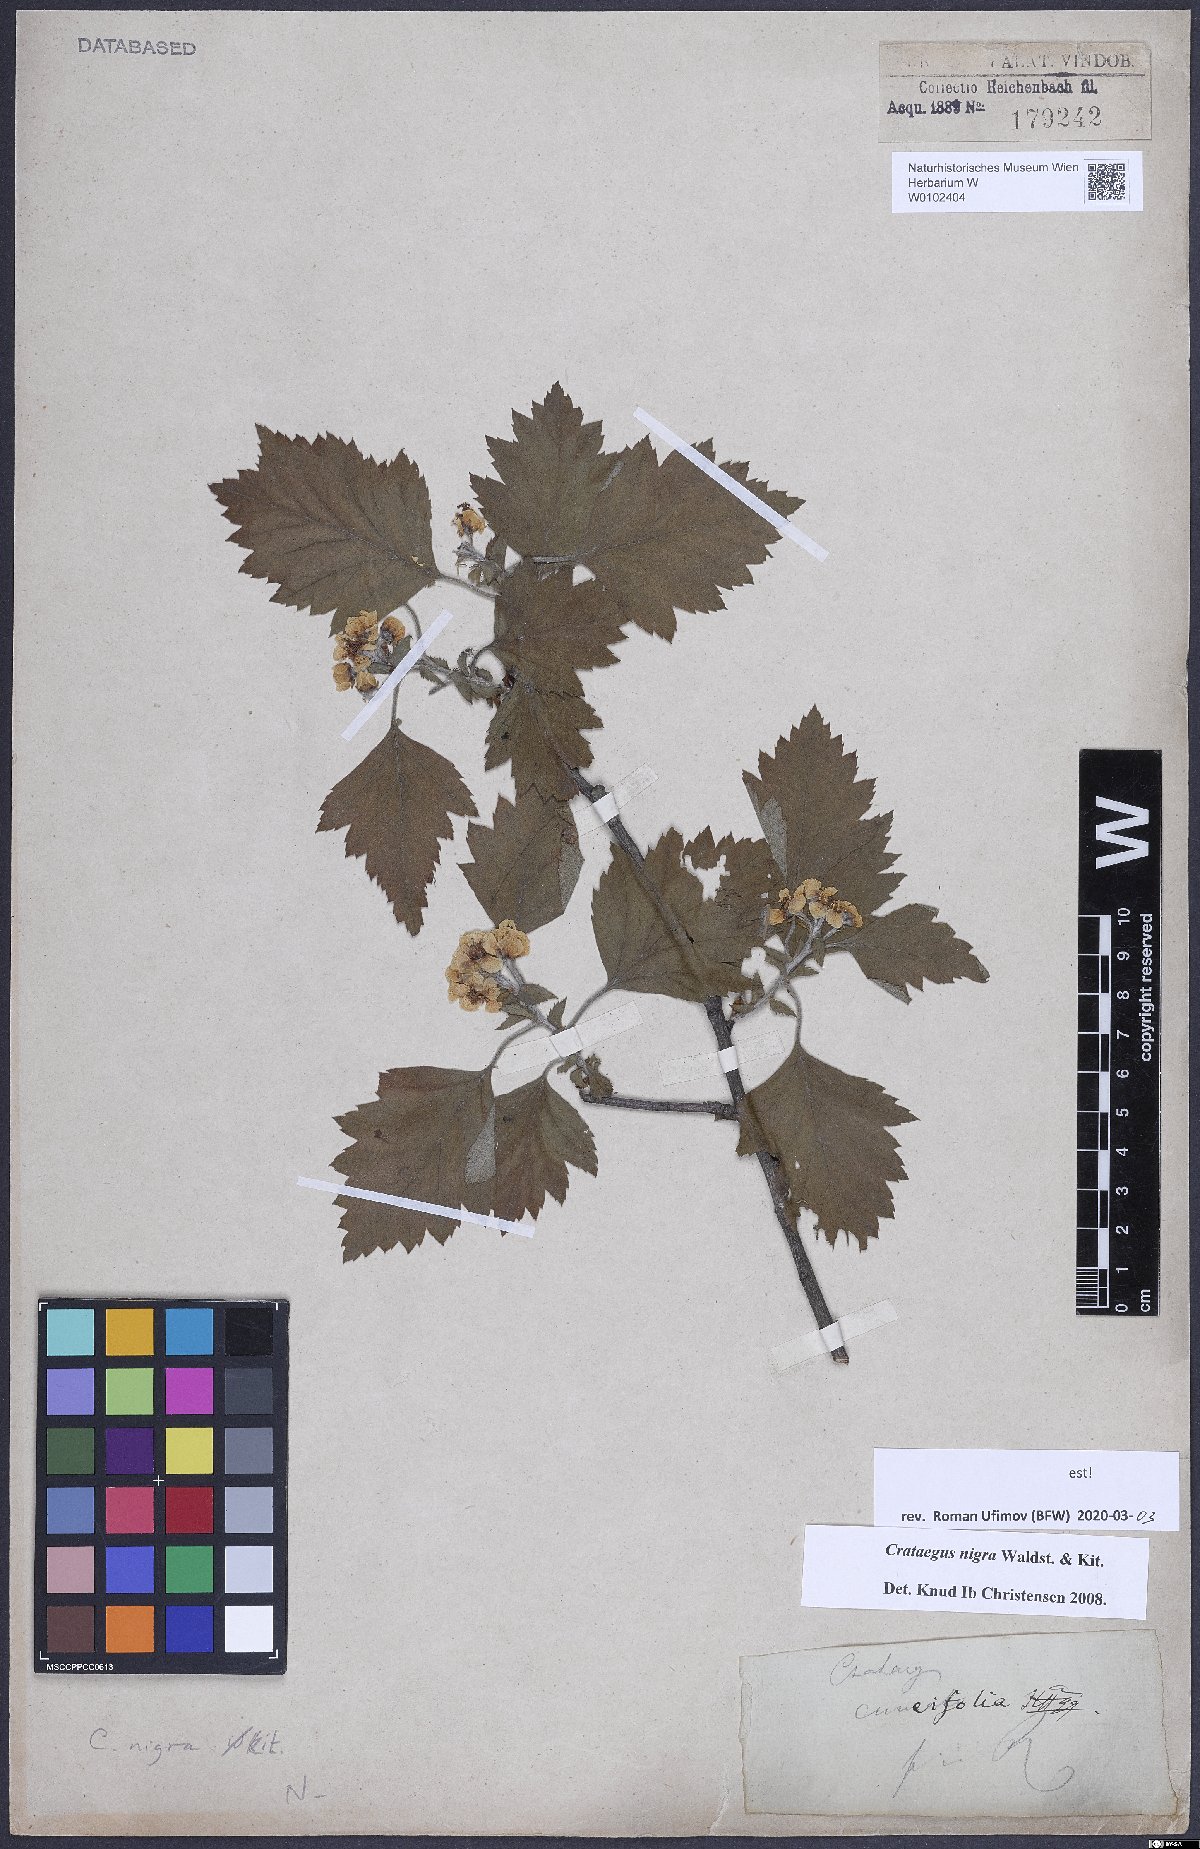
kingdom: Plantae
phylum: Tracheophyta
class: Magnoliopsida
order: Rosales
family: Rosaceae
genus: Crataegus
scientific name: Crataegus nigra
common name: Hungarian thorn
